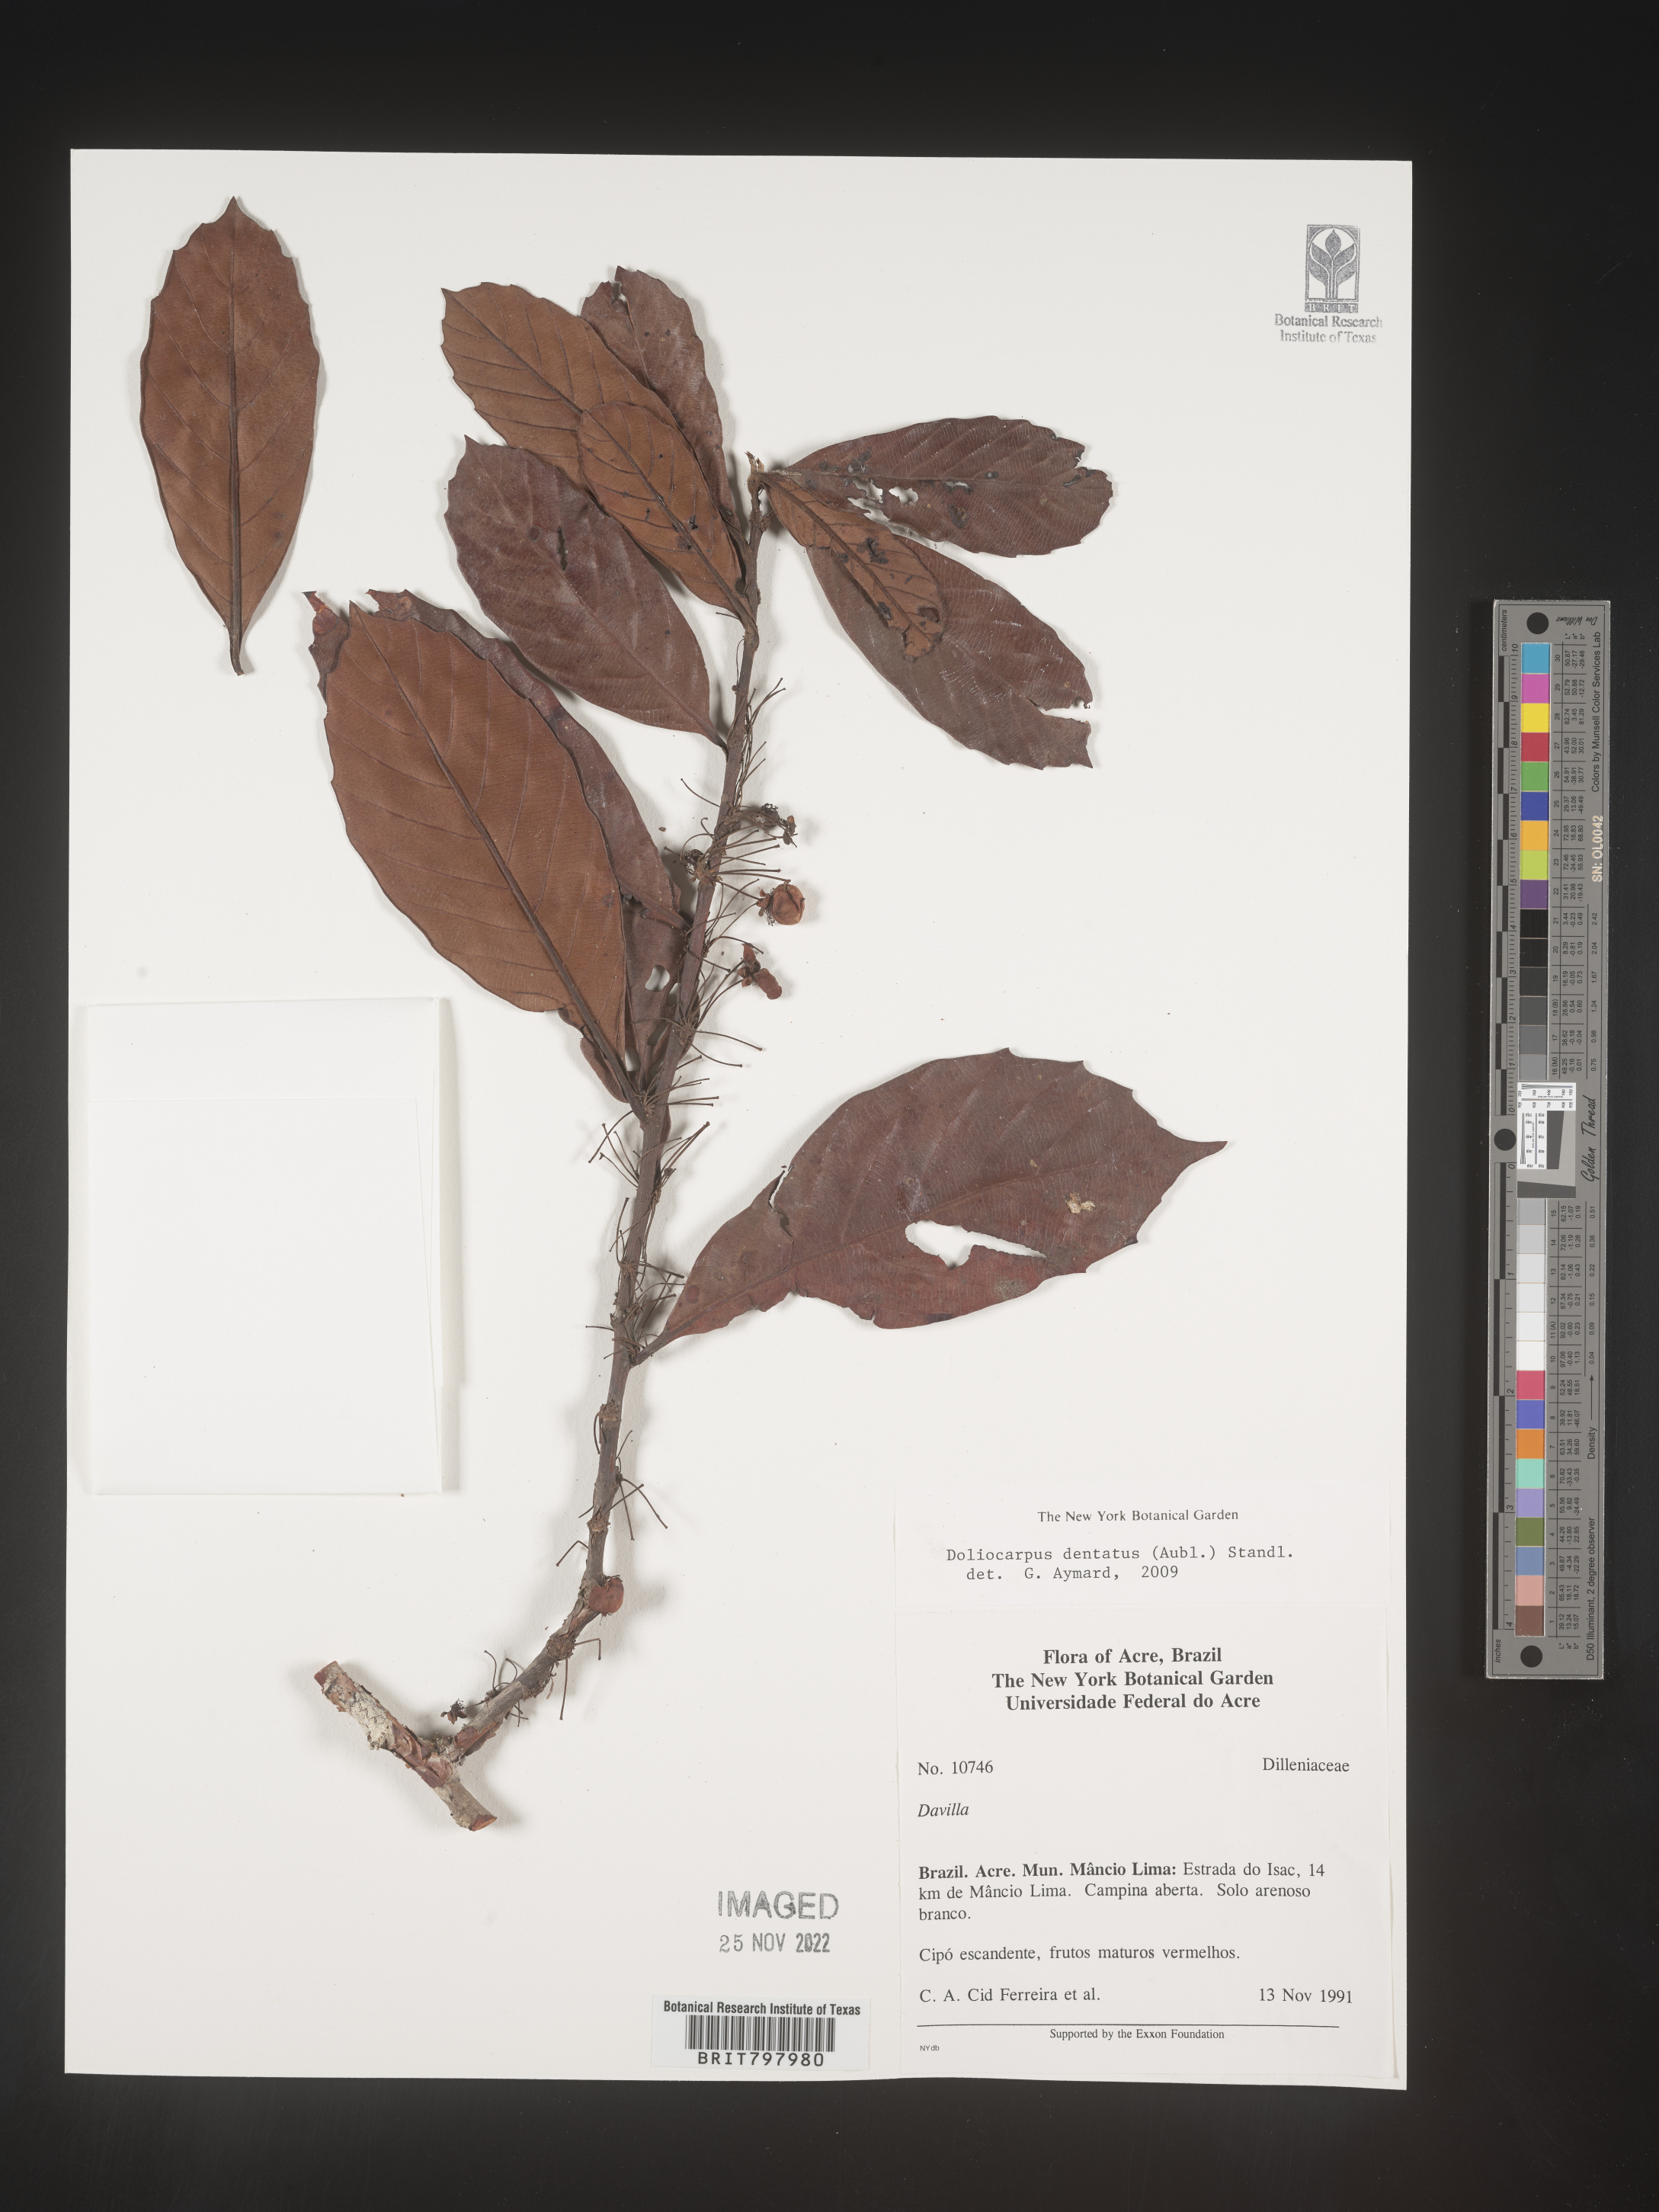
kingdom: Plantae
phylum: Tracheophyta
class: Magnoliopsida
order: Dilleniales
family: Dilleniaceae
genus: Doliocarpus
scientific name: Doliocarpus
